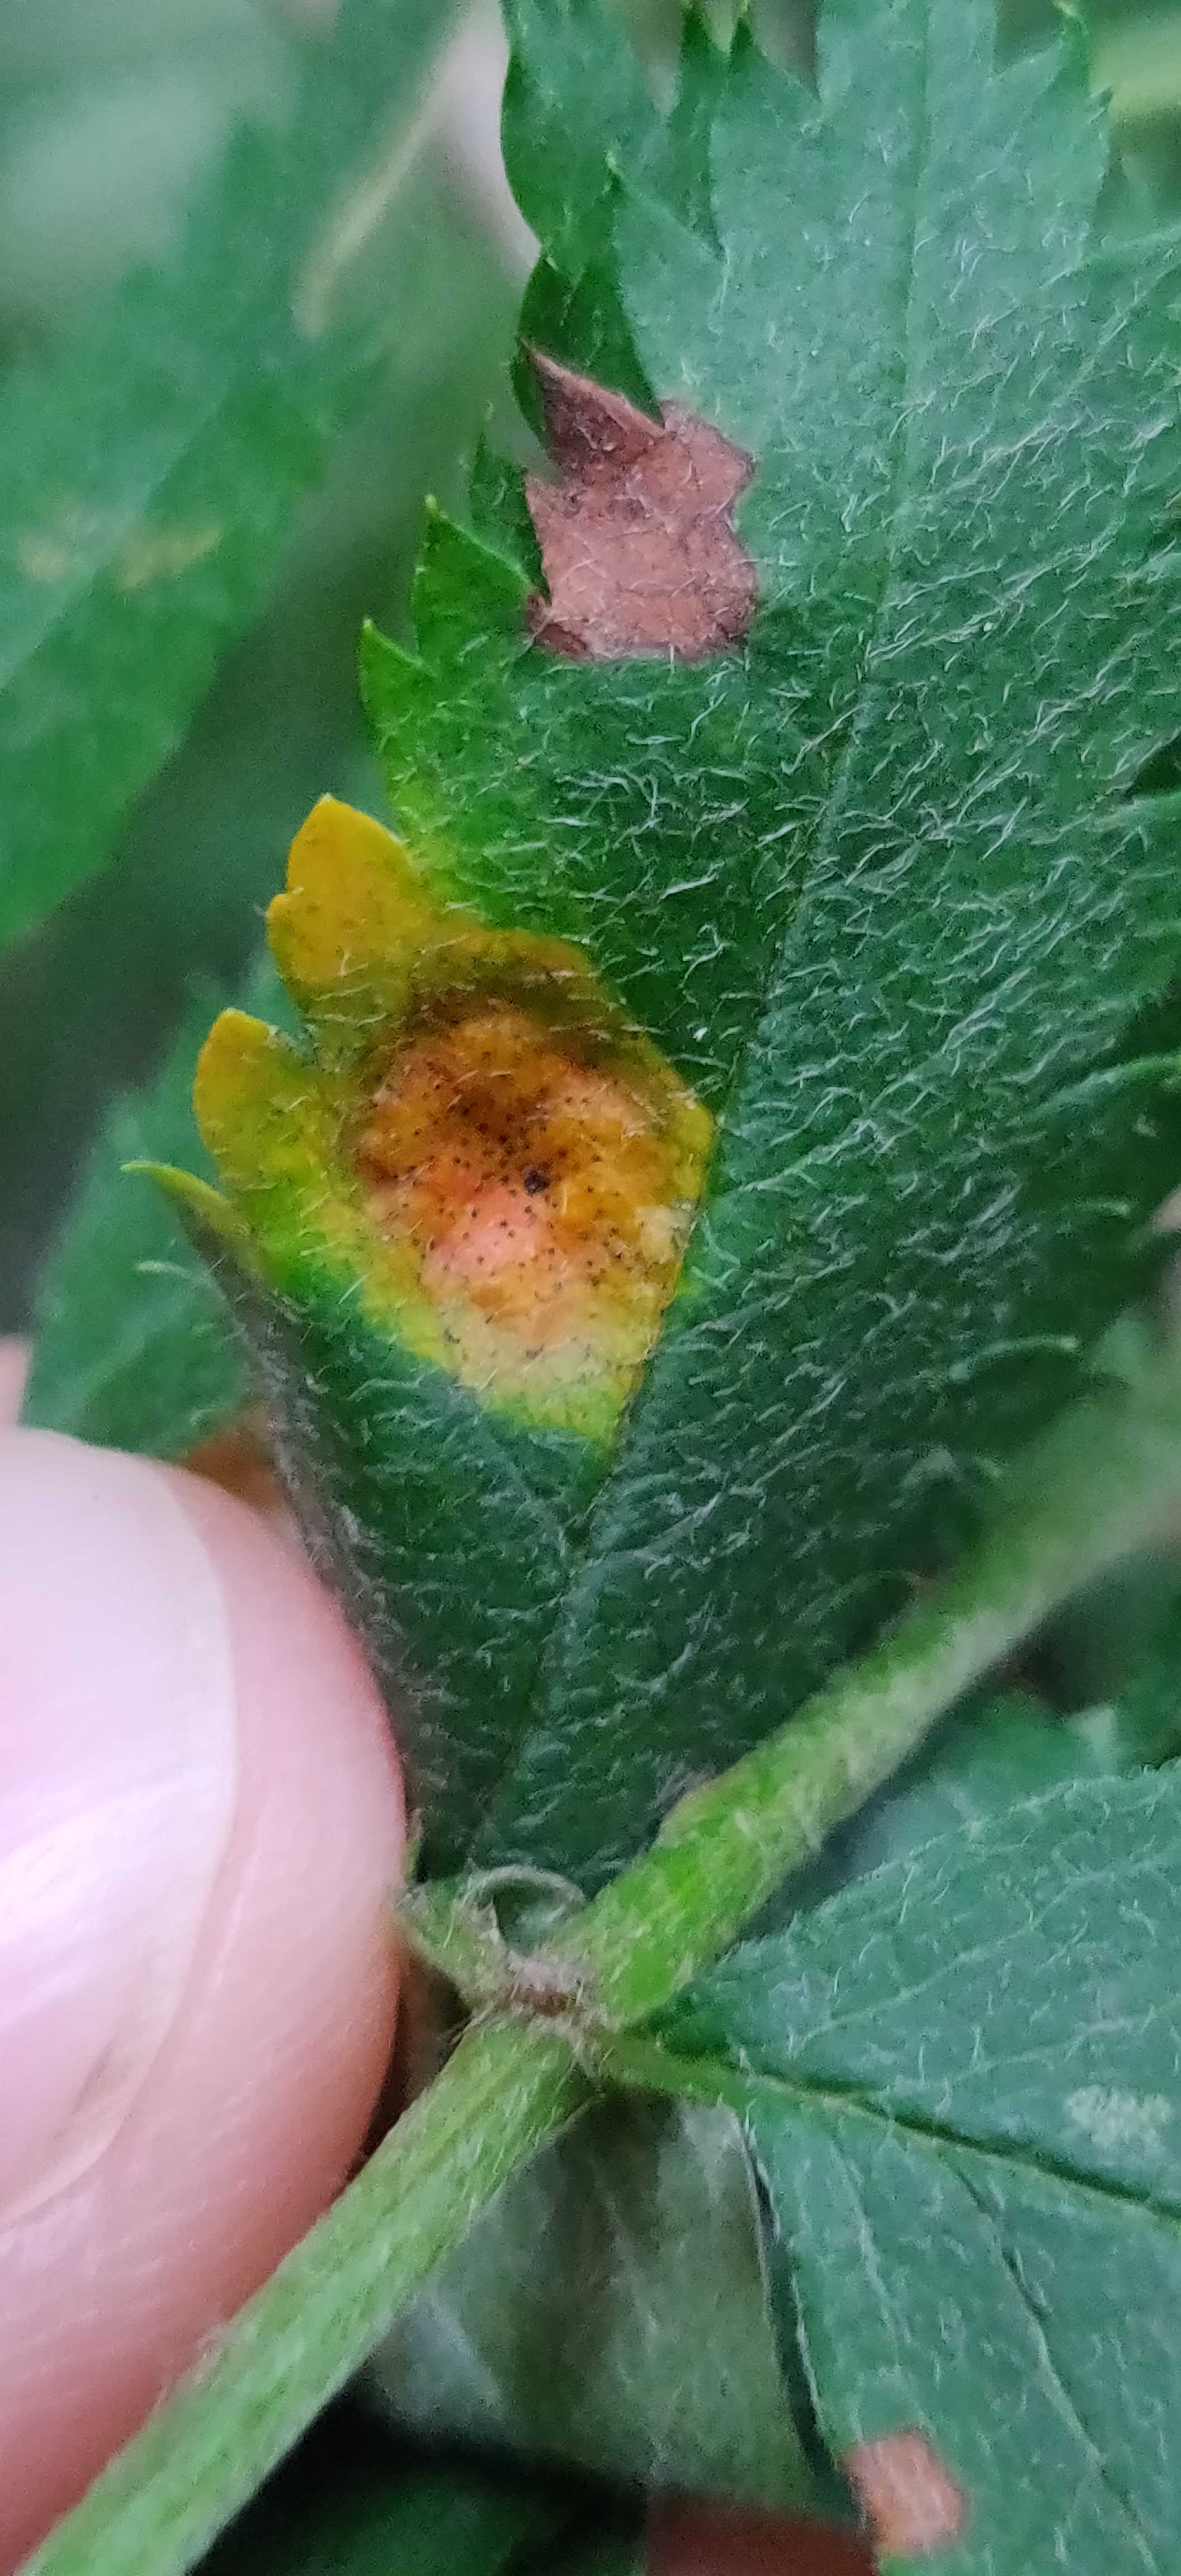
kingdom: Fungi
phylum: Basidiomycota
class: Pucciniomycetes
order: Pucciniales
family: Gymnosporangiaceae
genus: Gymnosporangium
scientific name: Gymnosporangium cornutum
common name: rønnehorn-bævrerust
